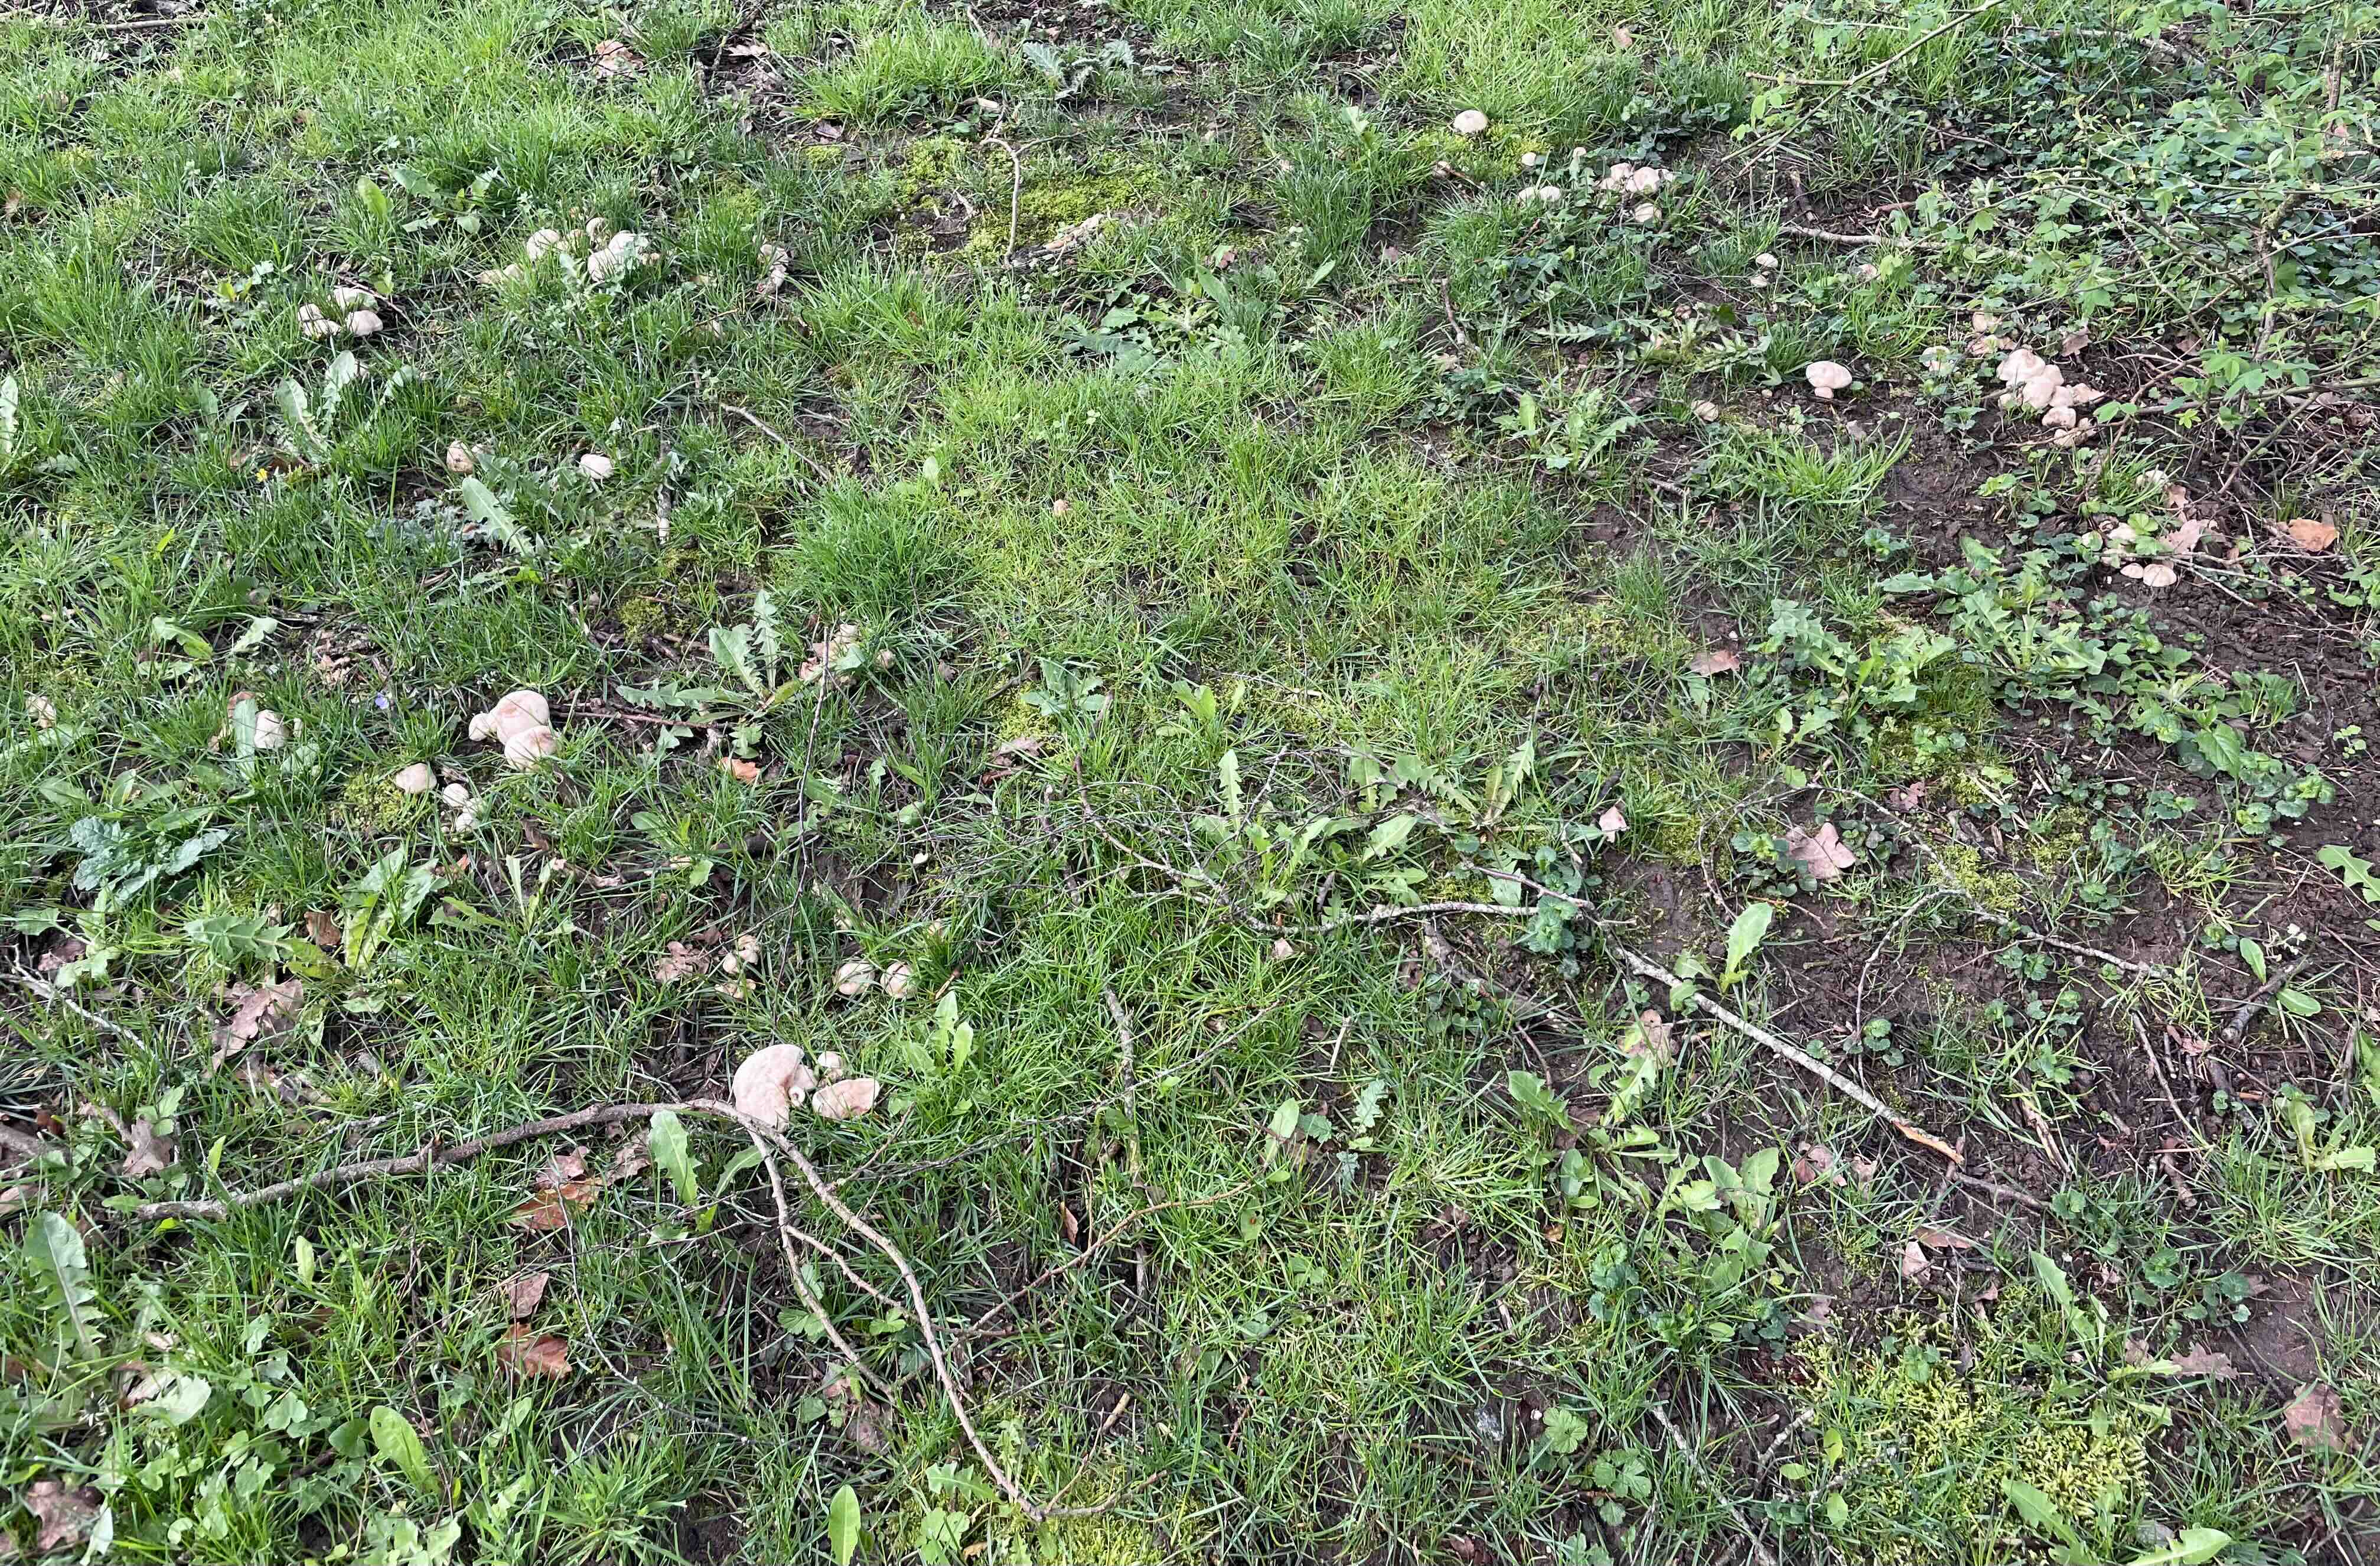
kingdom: Fungi
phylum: Basidiomycota
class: Agaricomycetes
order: Agaricales
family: Lyophyllaceae
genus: Calocybe
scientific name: Calocybe gambosa
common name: vårmusseron
